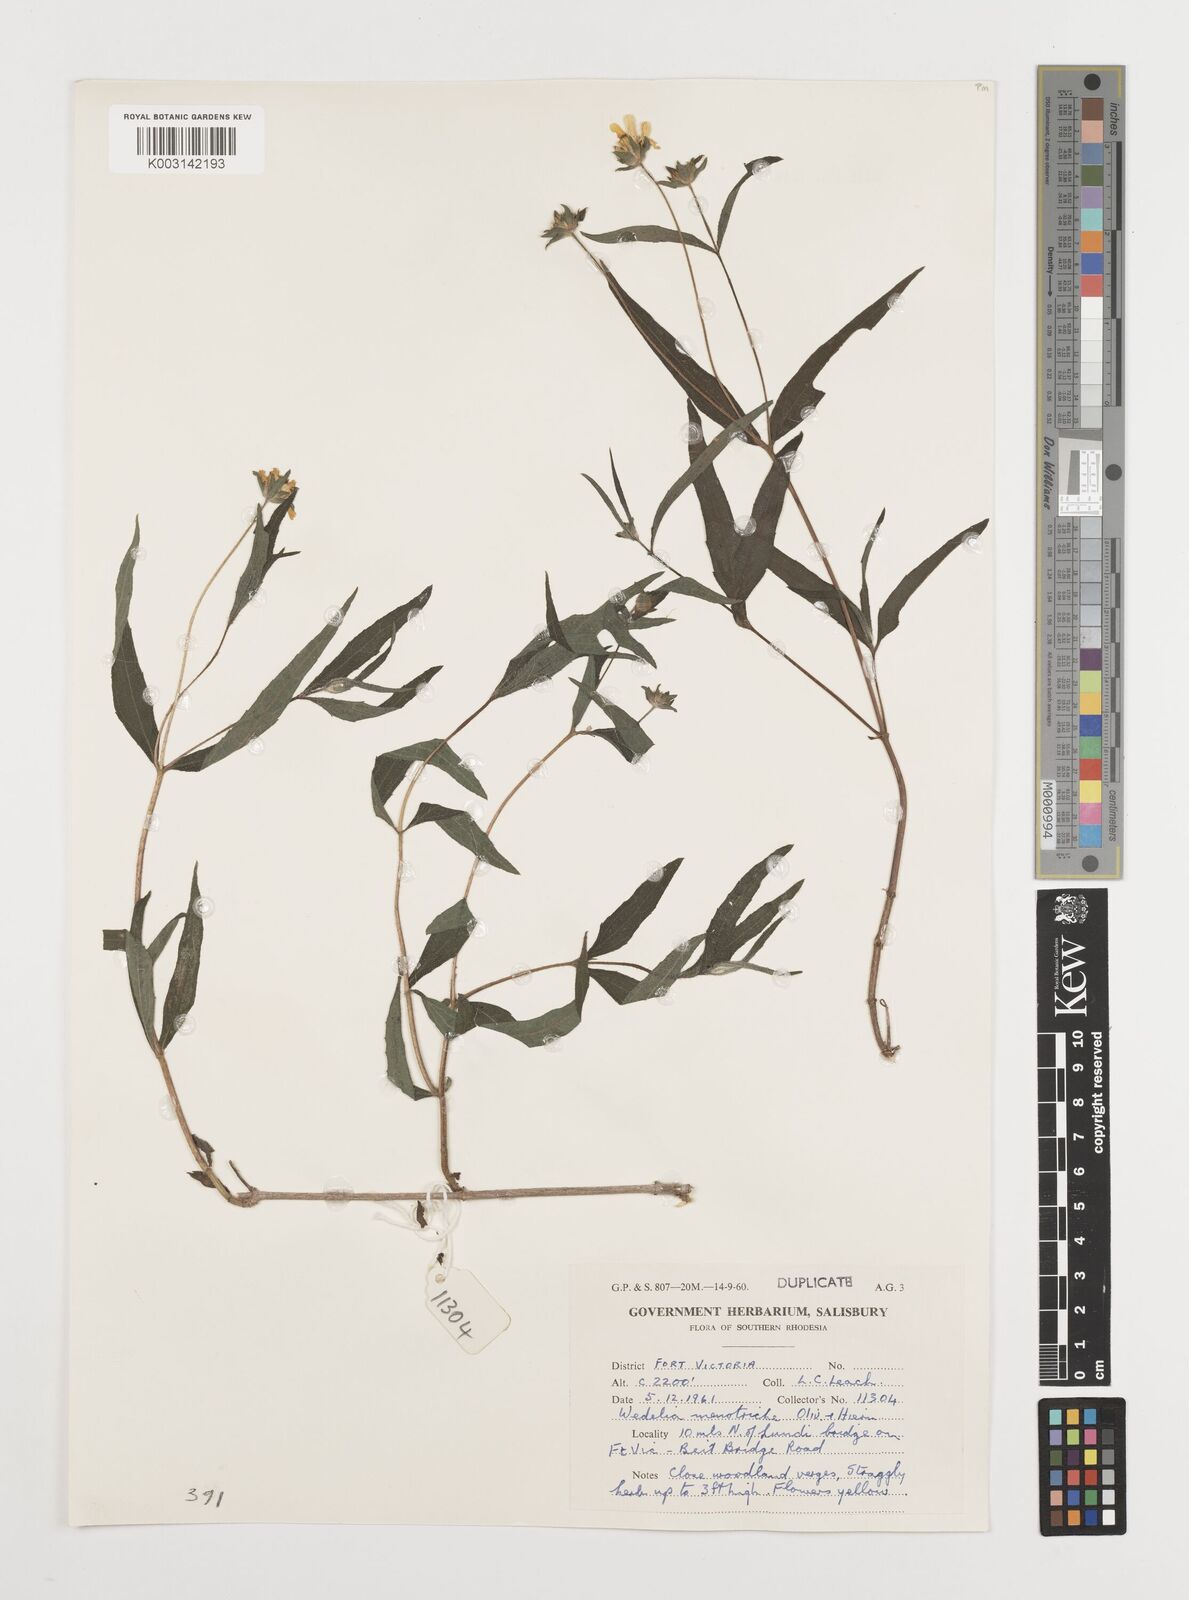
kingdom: Plantae
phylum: Tracheophyta
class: Magnoliopsida
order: Asterales
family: Asteraceae
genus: Aspilia
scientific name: Aspilia mossambicensis
